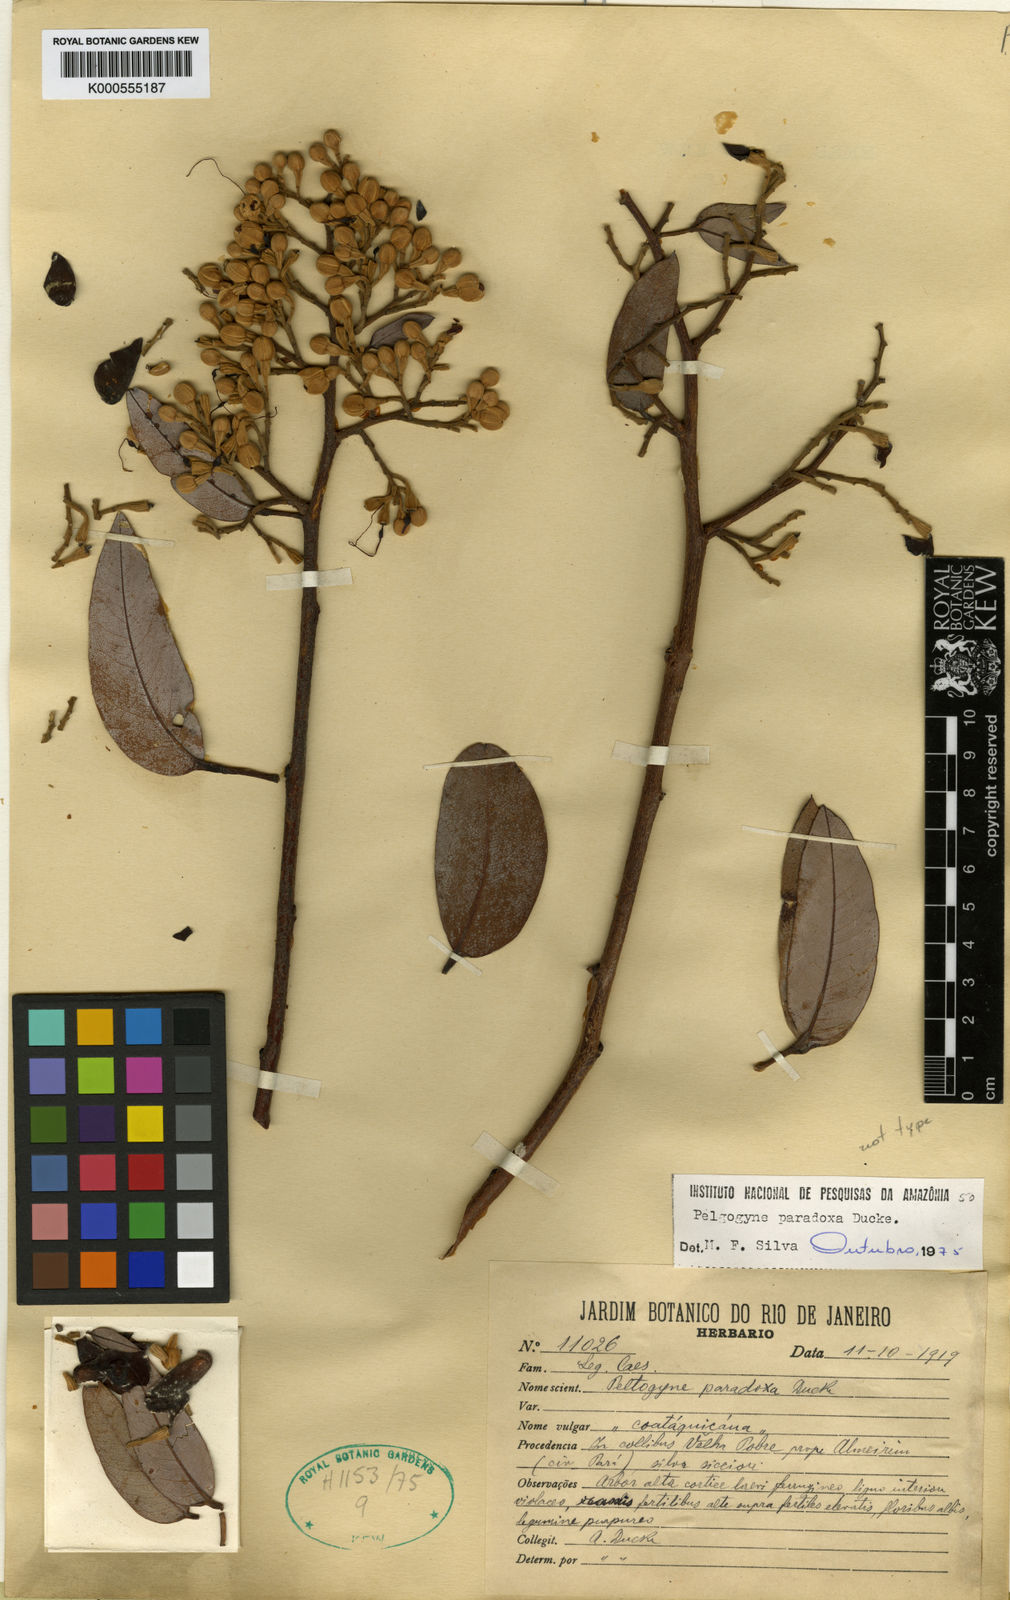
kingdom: Plantae
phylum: Tracheophyta
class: Magnoliopsida
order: Fabales
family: Fabaceae
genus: Peltogyne
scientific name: Peltogyne paradoxa
